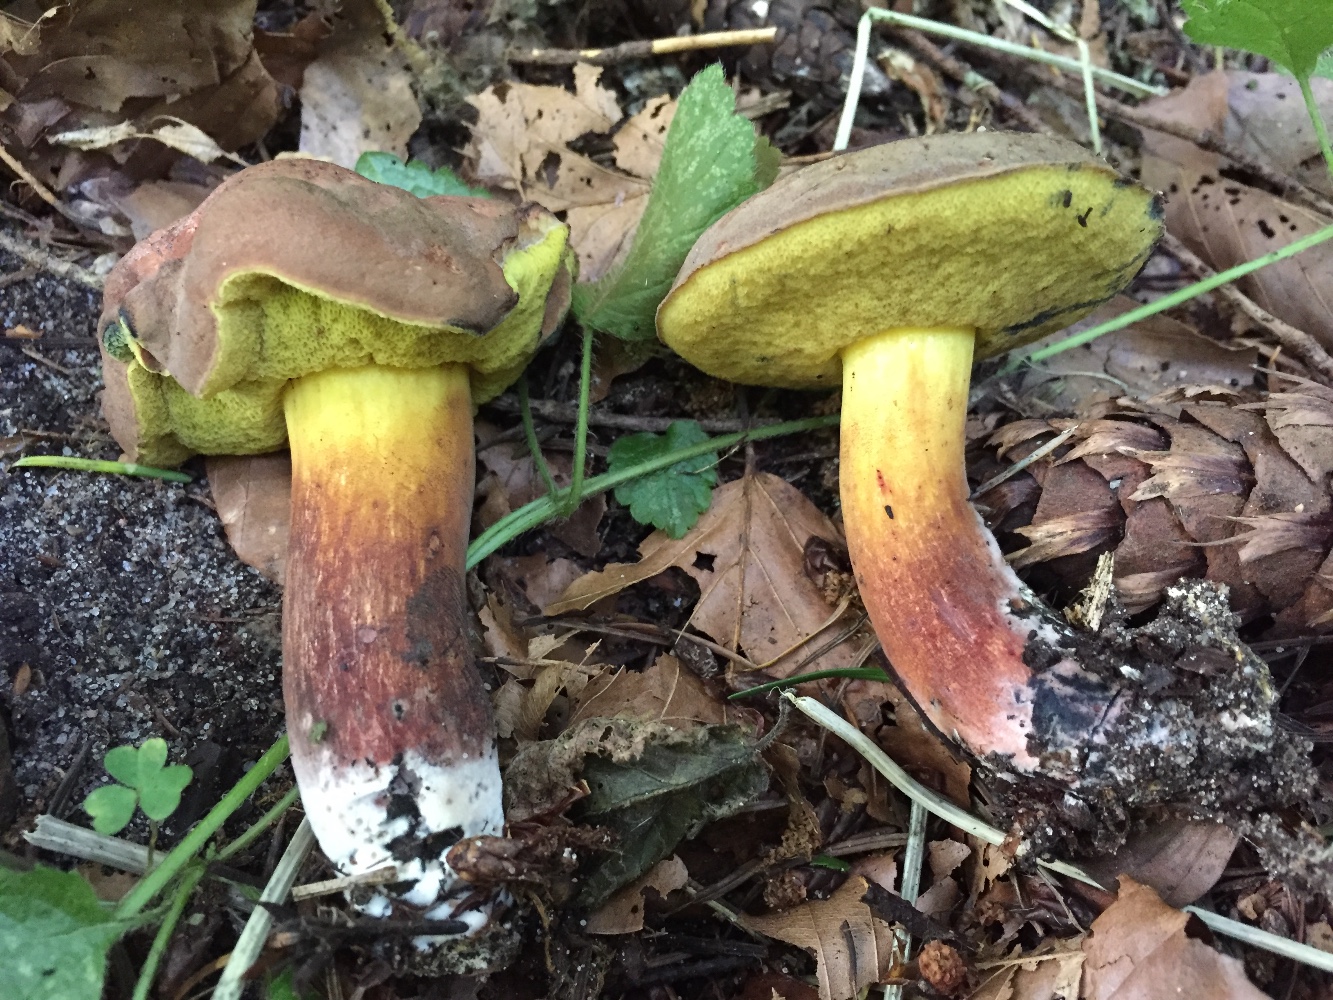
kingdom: Fungi
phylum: Basidiomycota
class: Agaricomycetes
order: Boletales
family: Boletaceae
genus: Cyanoboletus
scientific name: Cyanoboletus pulverulentus
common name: sortblånende rørhat
